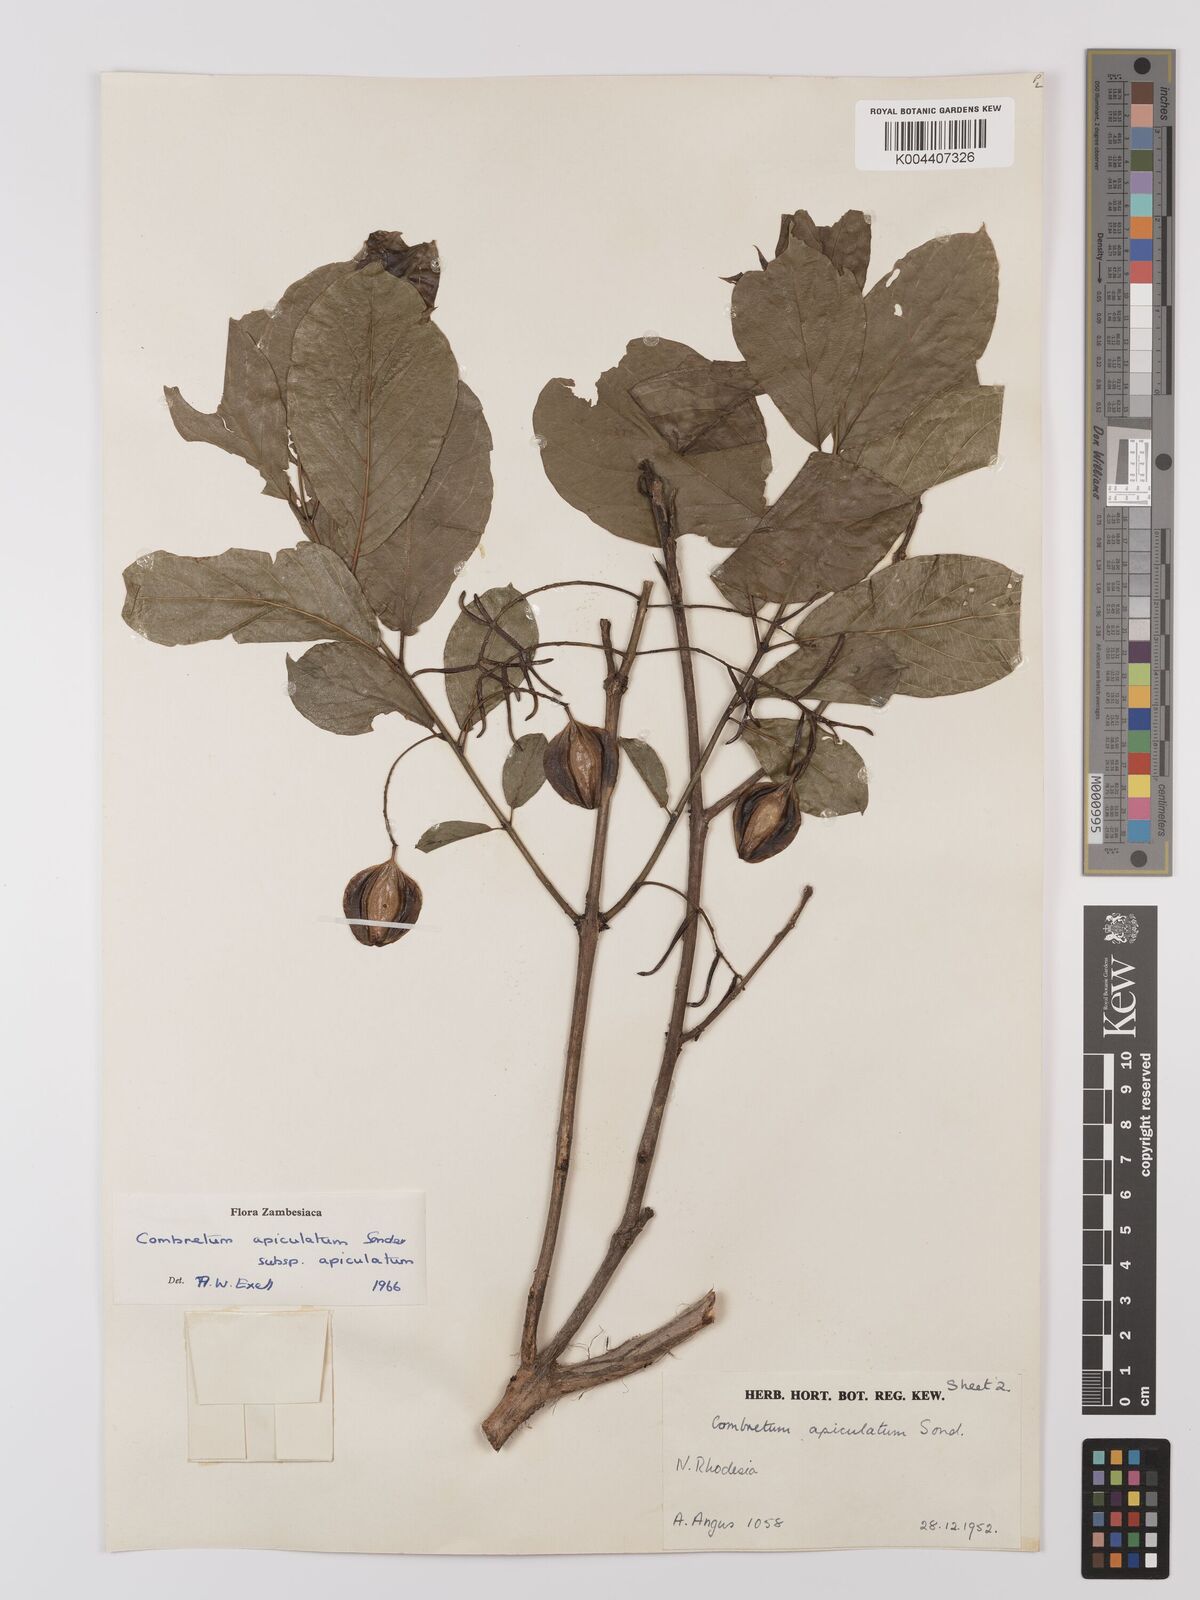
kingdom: Plantae
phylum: Tracheophyta
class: Magnoliopsida
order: Myrtales
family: Combretaceae
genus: Combretum
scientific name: Combretum apiculatum
